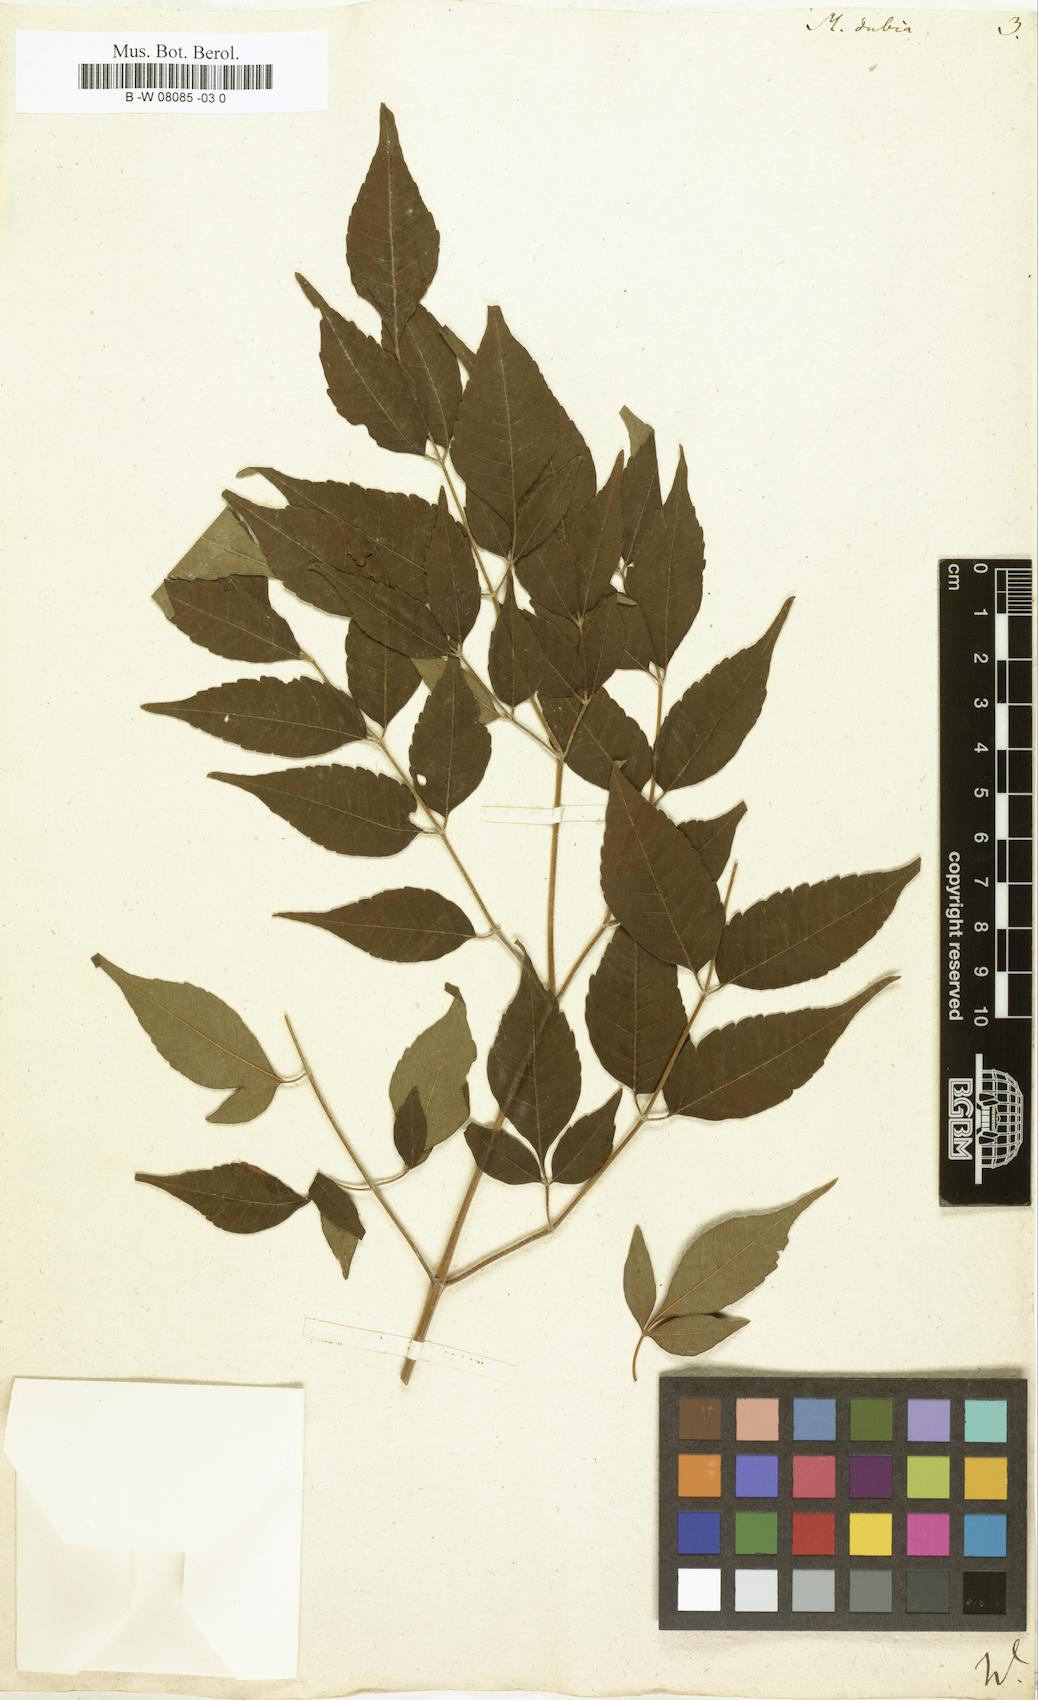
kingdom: Plantae
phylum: Tracheophyta
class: Magnoliopsida
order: Sapindales
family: Meliaceae
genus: Melia
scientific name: Melia dubia
